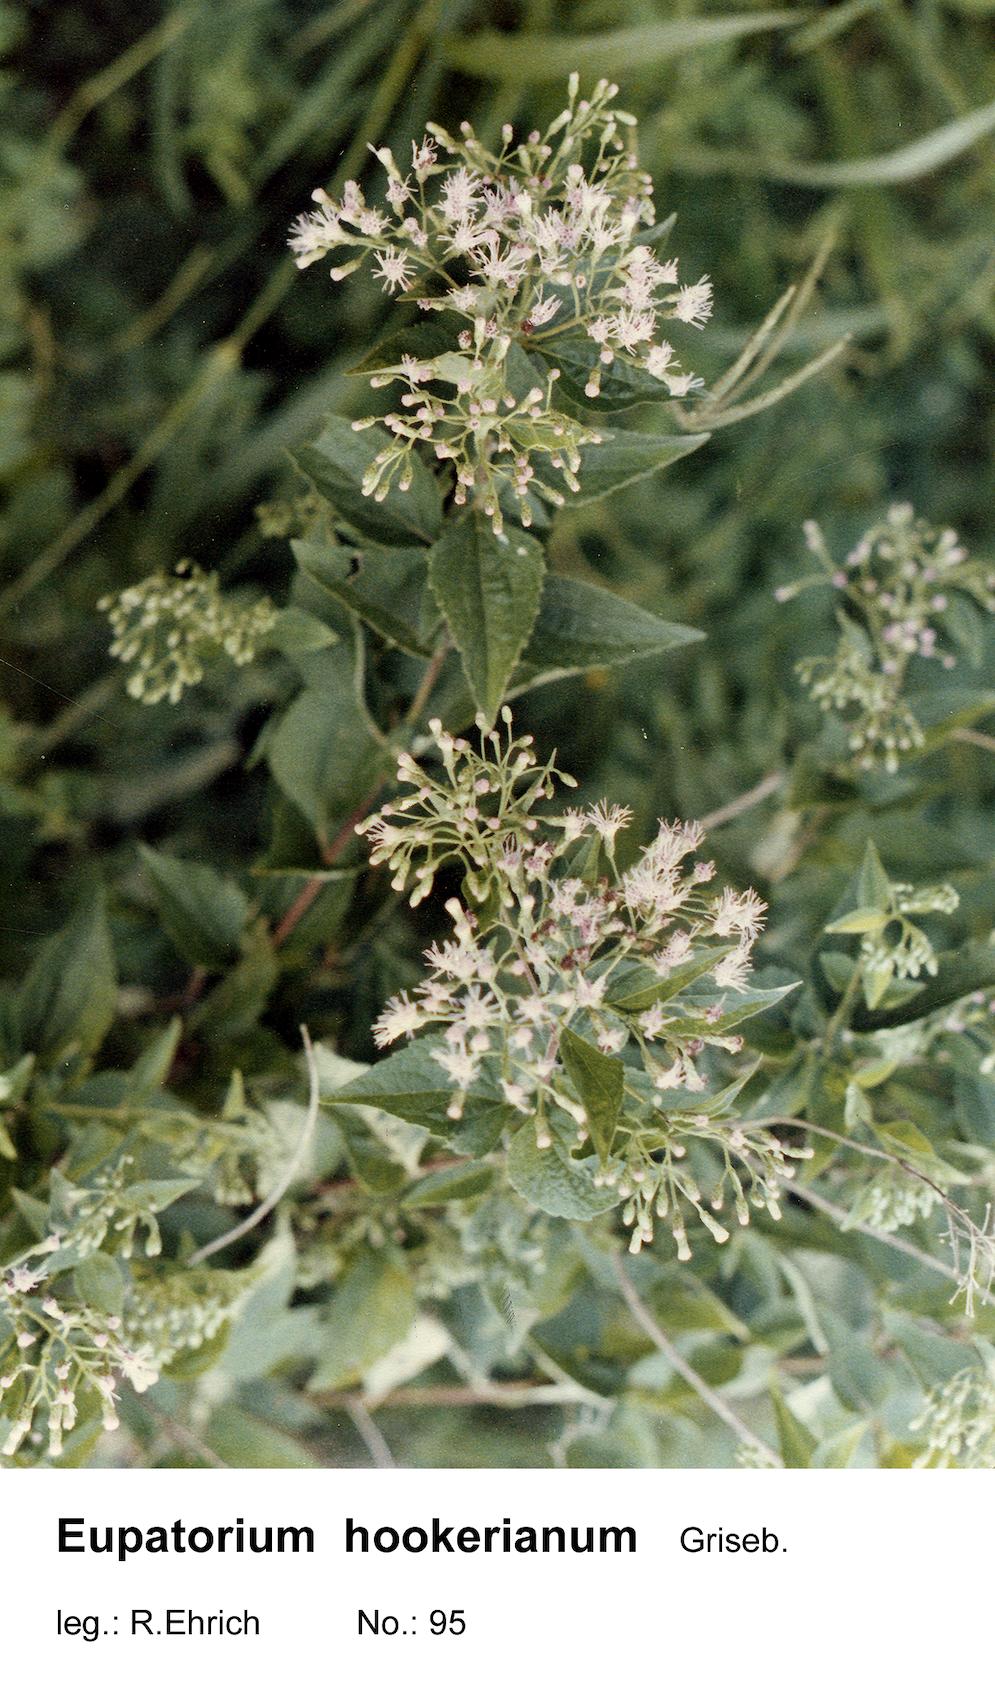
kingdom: Plantae
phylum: Tracheophyta
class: Magnoliopsida
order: Asterales
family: Asteraceae
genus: Chromolaena
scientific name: Chromolaena hookeriana
